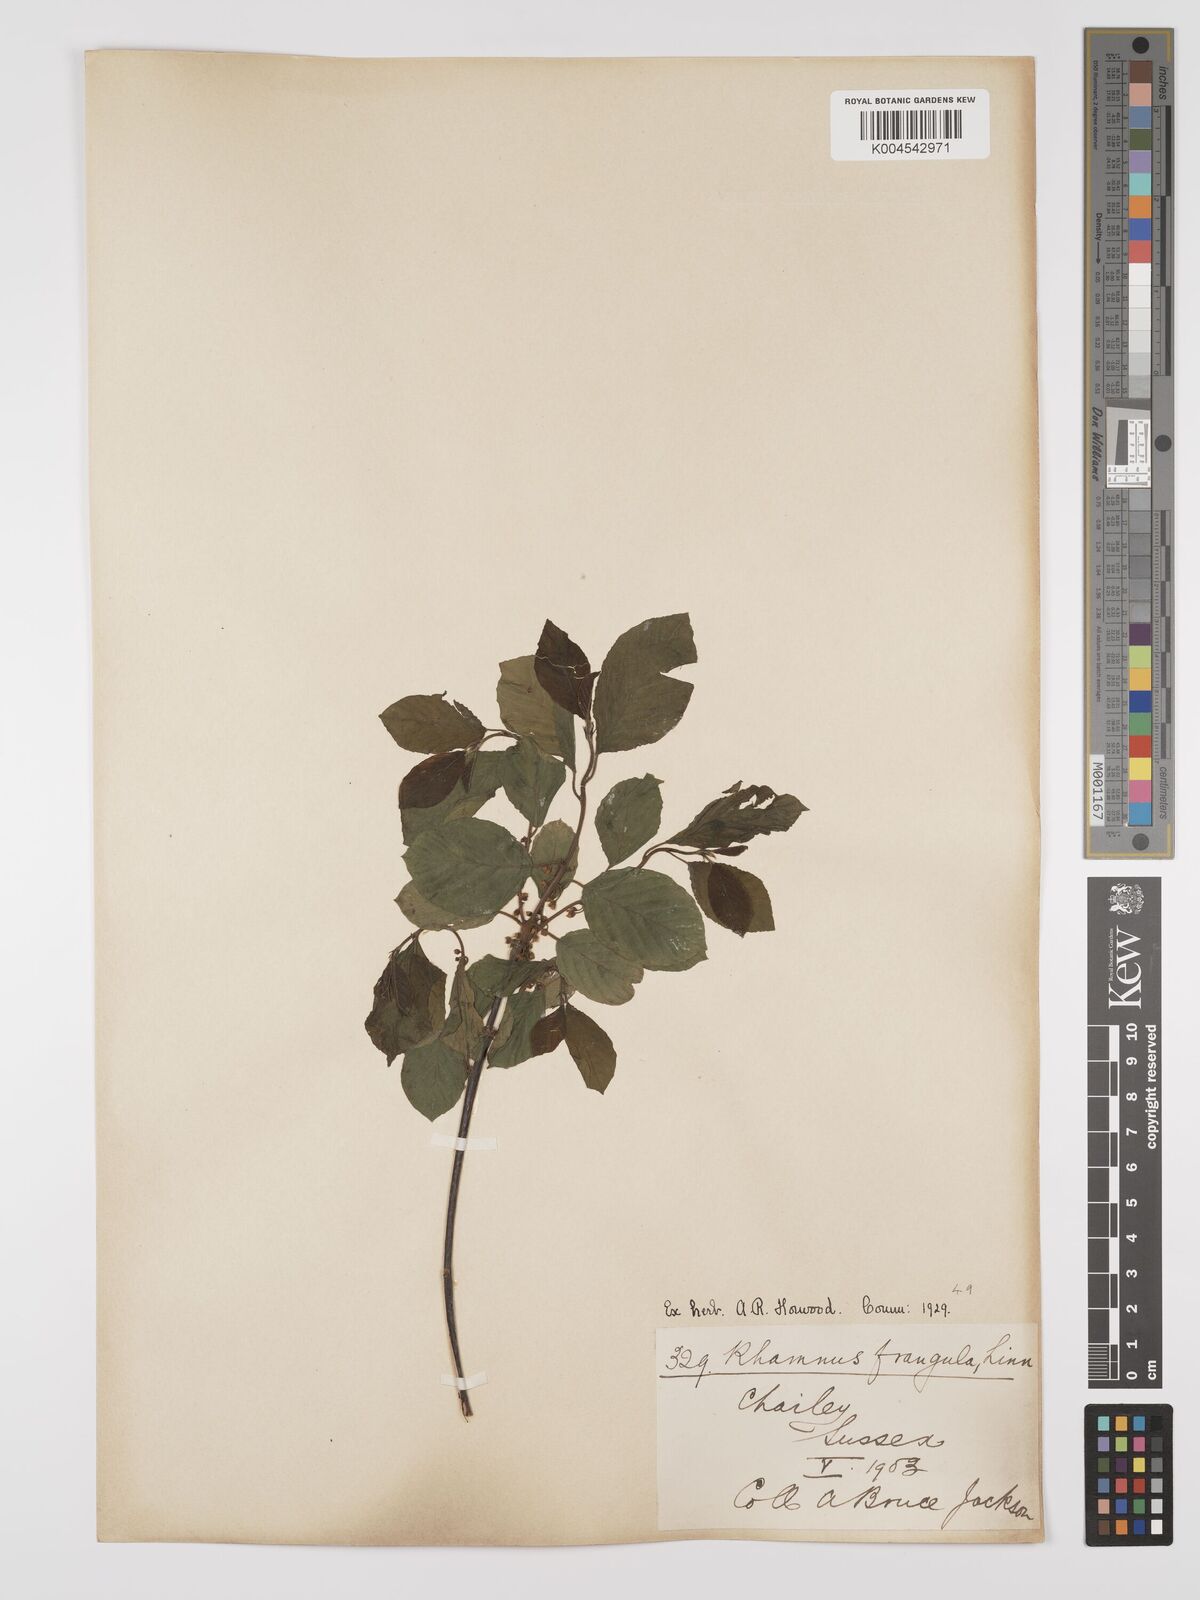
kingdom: Plantae
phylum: Tracheophyta
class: Magnoliopsida
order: Rosales
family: Rhamnaceae
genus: Frangula
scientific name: Frangula alnus
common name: Alder buckthorn
